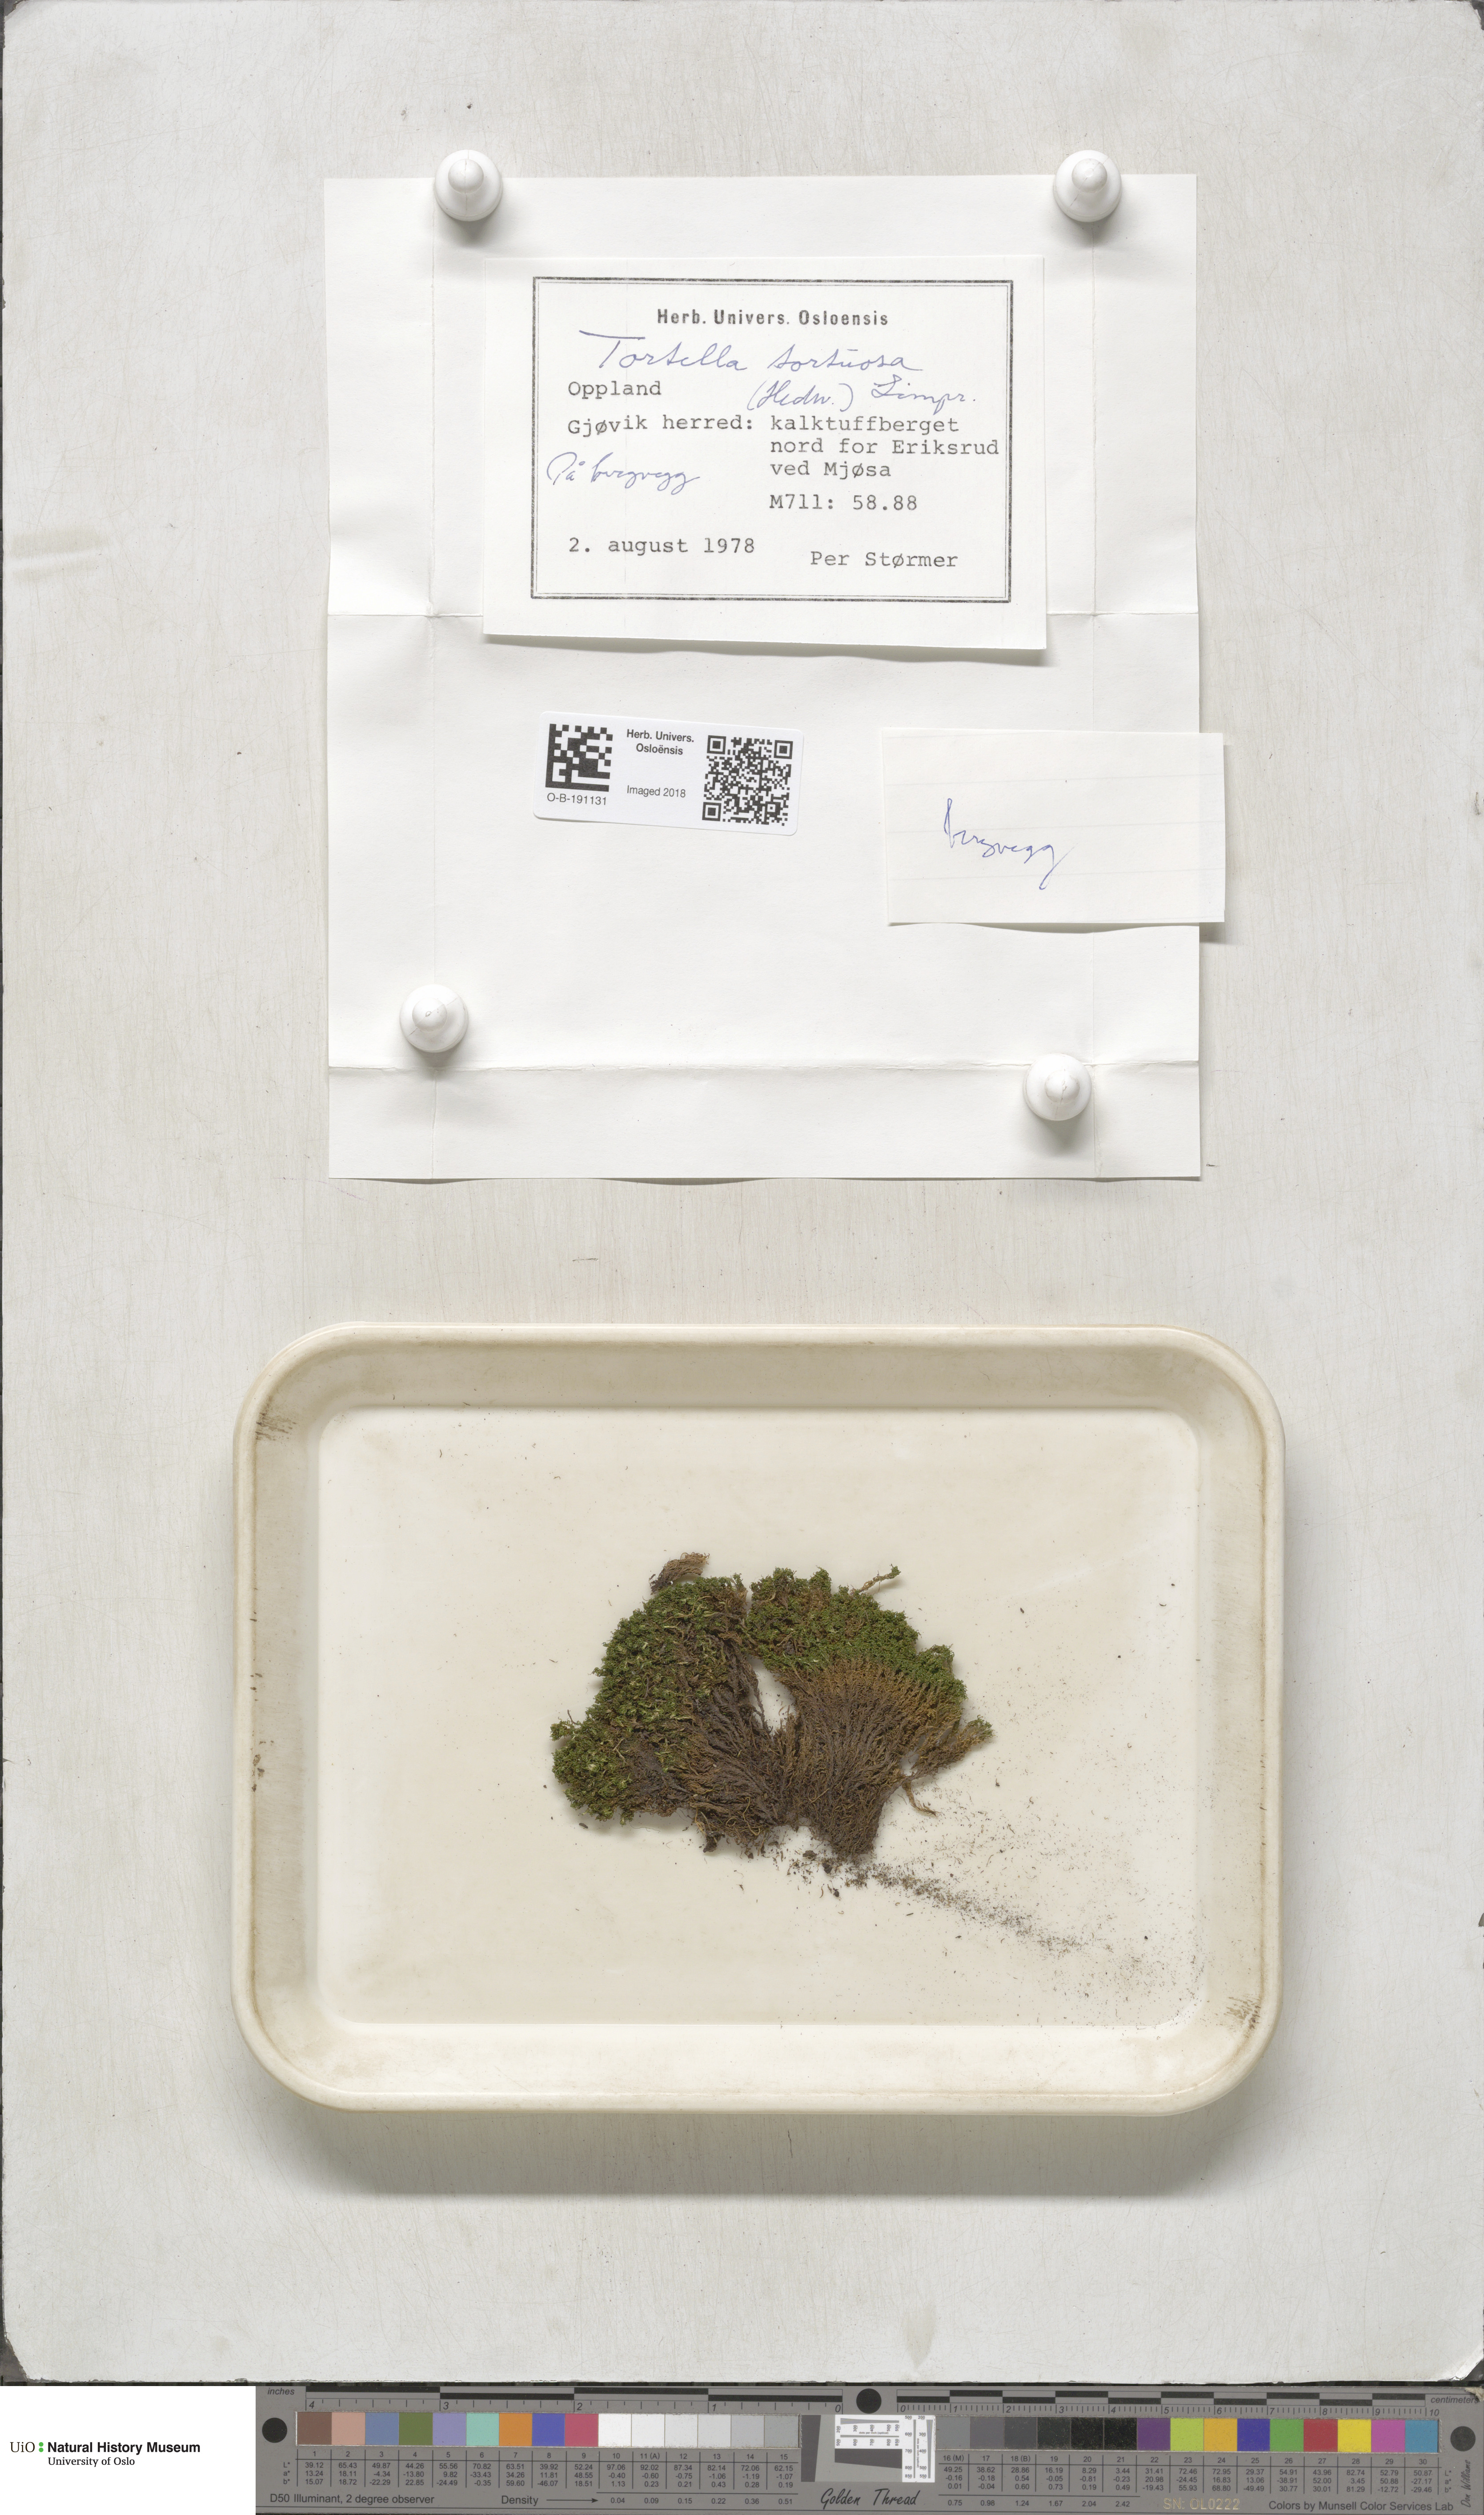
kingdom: Plantae
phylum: Bryophyta
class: Bryopsida
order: Pottiales
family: Pottiaceae
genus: Tortella
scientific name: Tortella tortuosa
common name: Frizzled crisp moss
